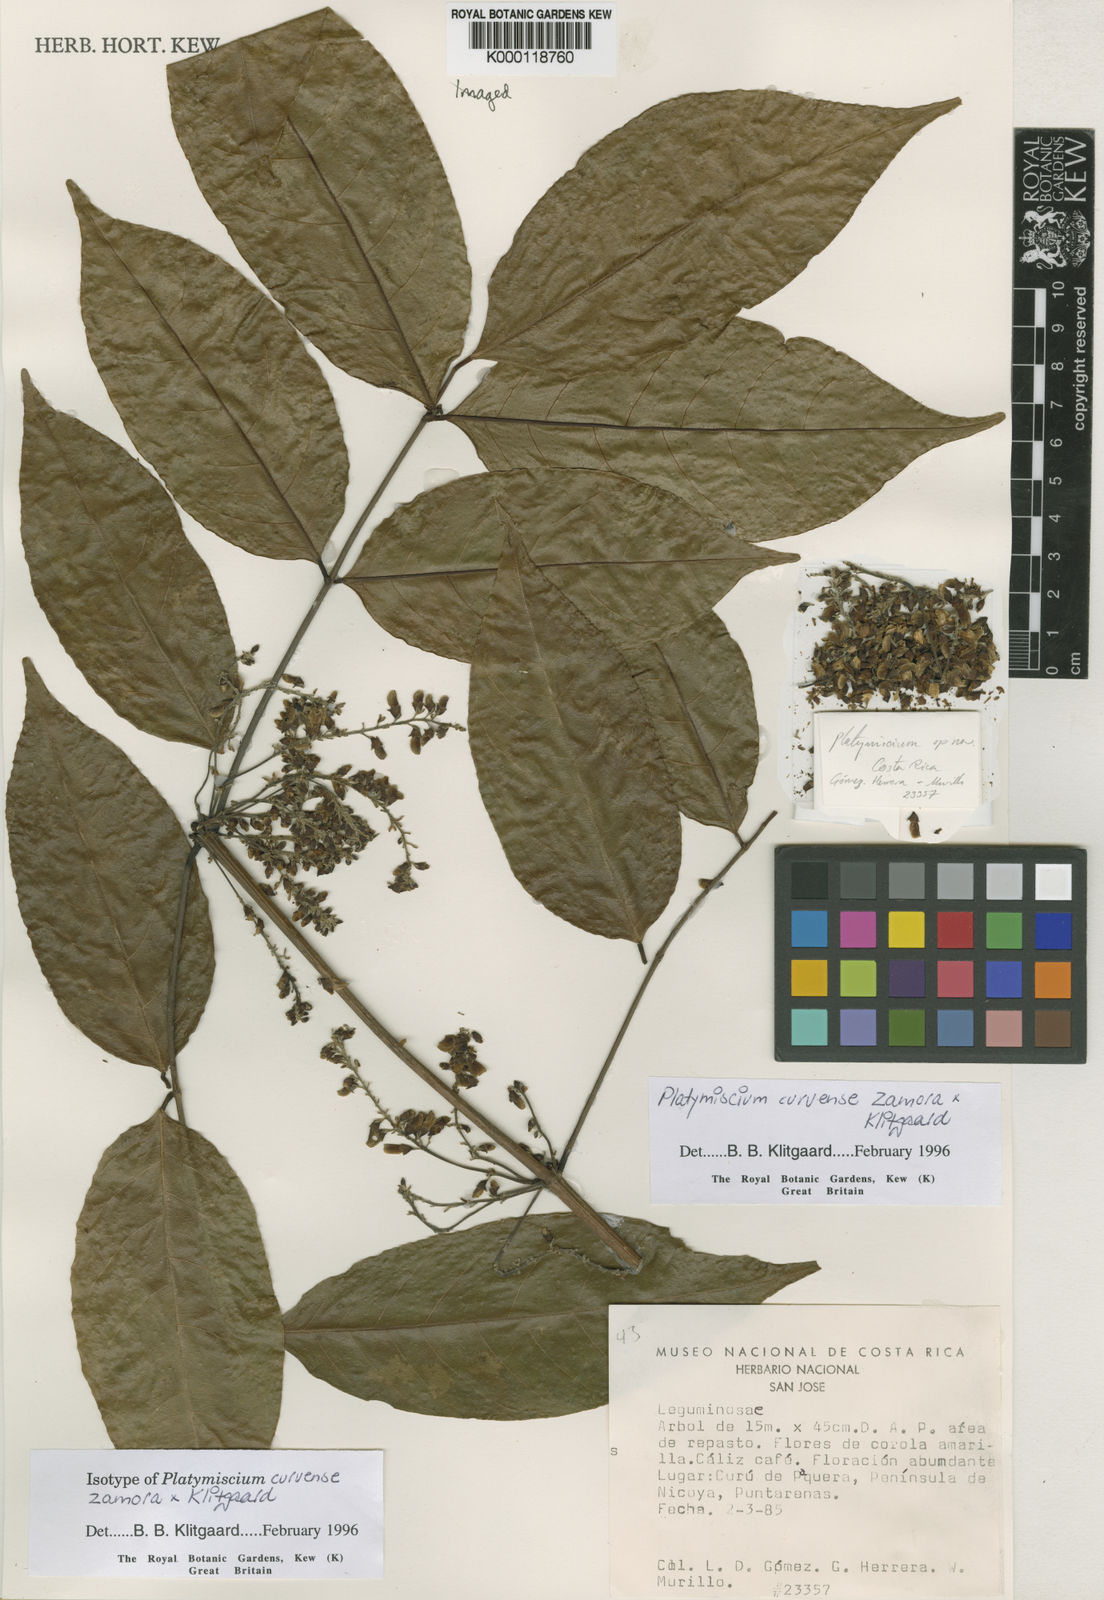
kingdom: Plantae
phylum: Tracheophyta
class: Magnoliopsida
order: Fabales
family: Fabaceae
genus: Platymiscium
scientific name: Platymiscium curuense
